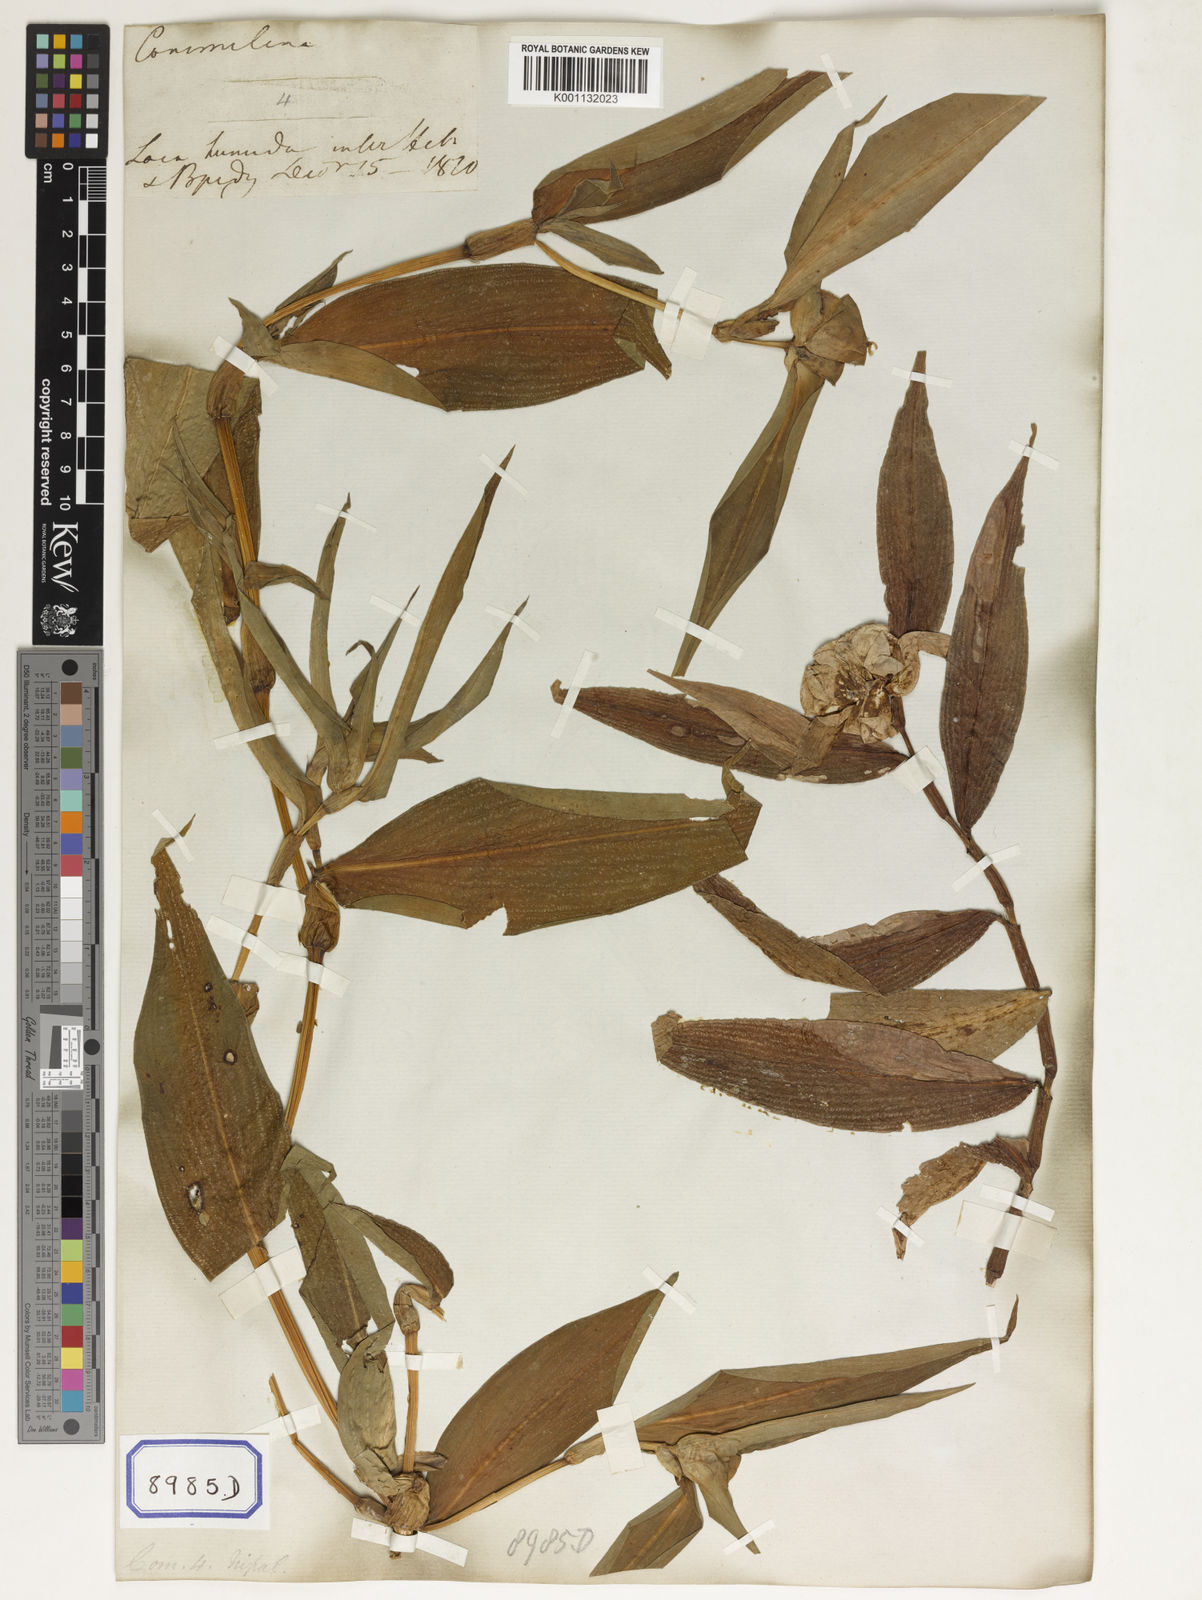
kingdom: Plantae
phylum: Tracheophyta
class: Liliopsida
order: Commelinales
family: Commelinaceae
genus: Commelina
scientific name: Commelina
